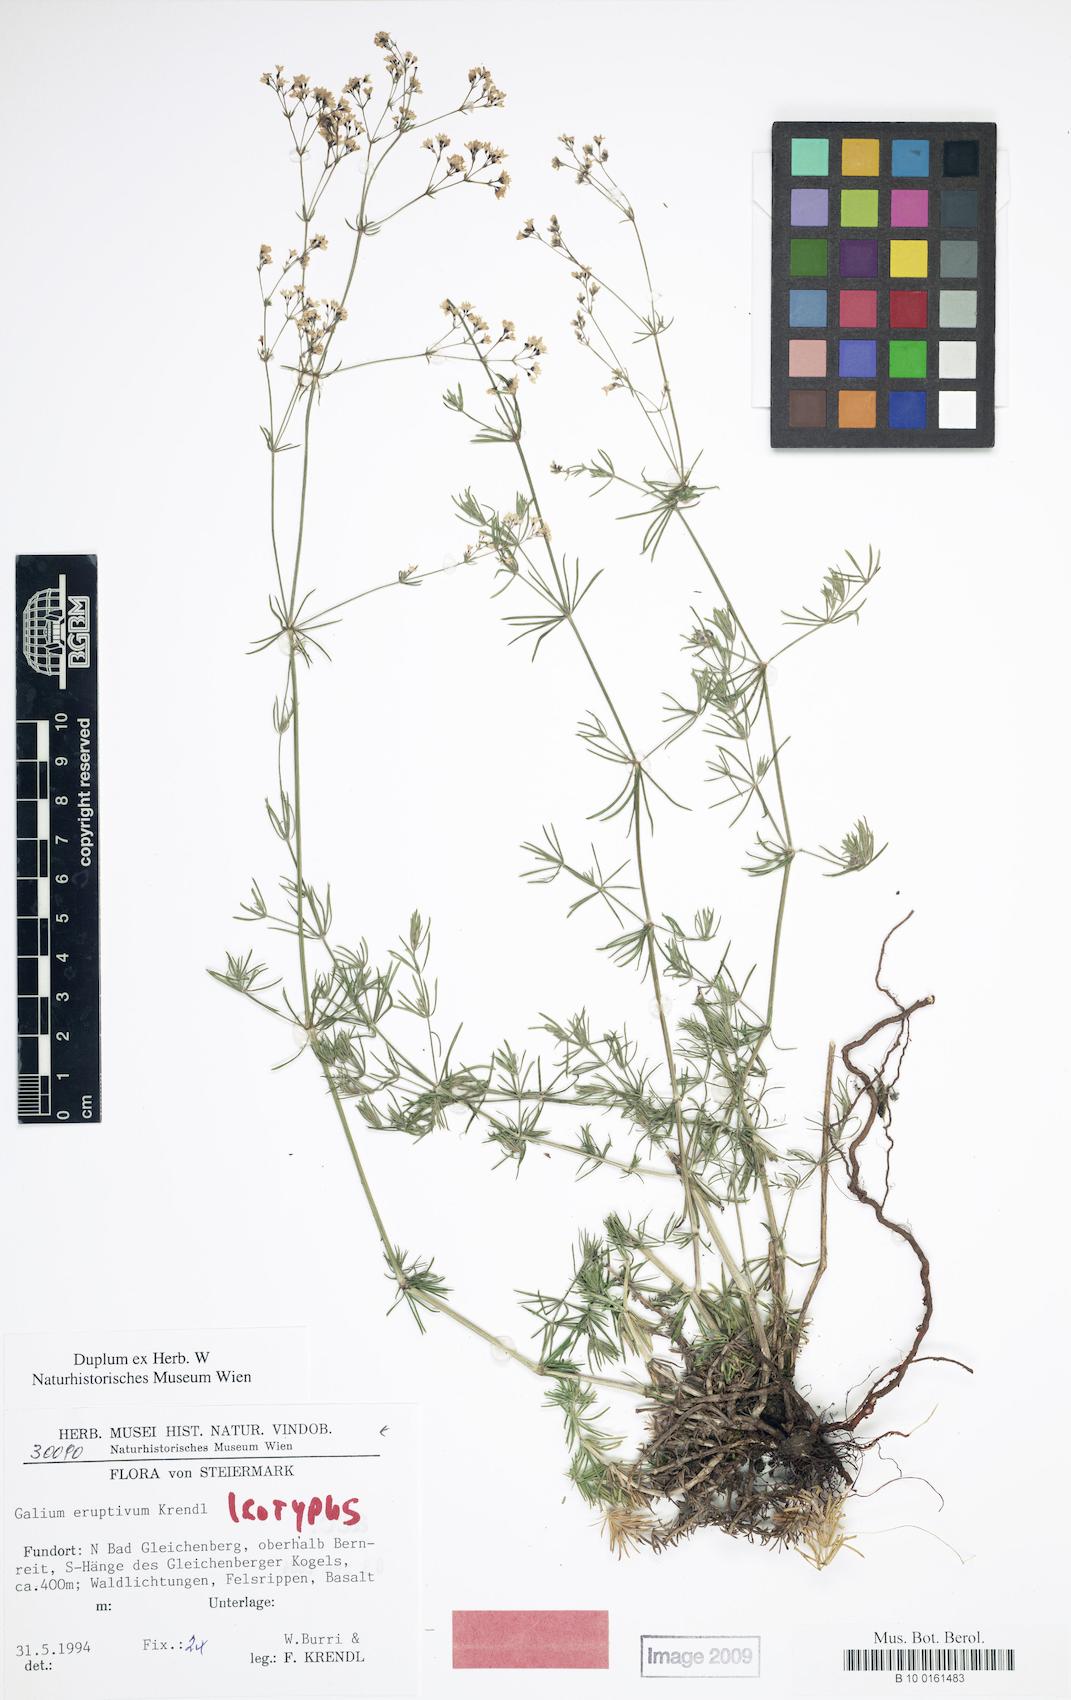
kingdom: Plantae
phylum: Tracheophyta
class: Magnoliopsida
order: Gentianales
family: Rubiaceae
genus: Galium
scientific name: Galium eruptivum
